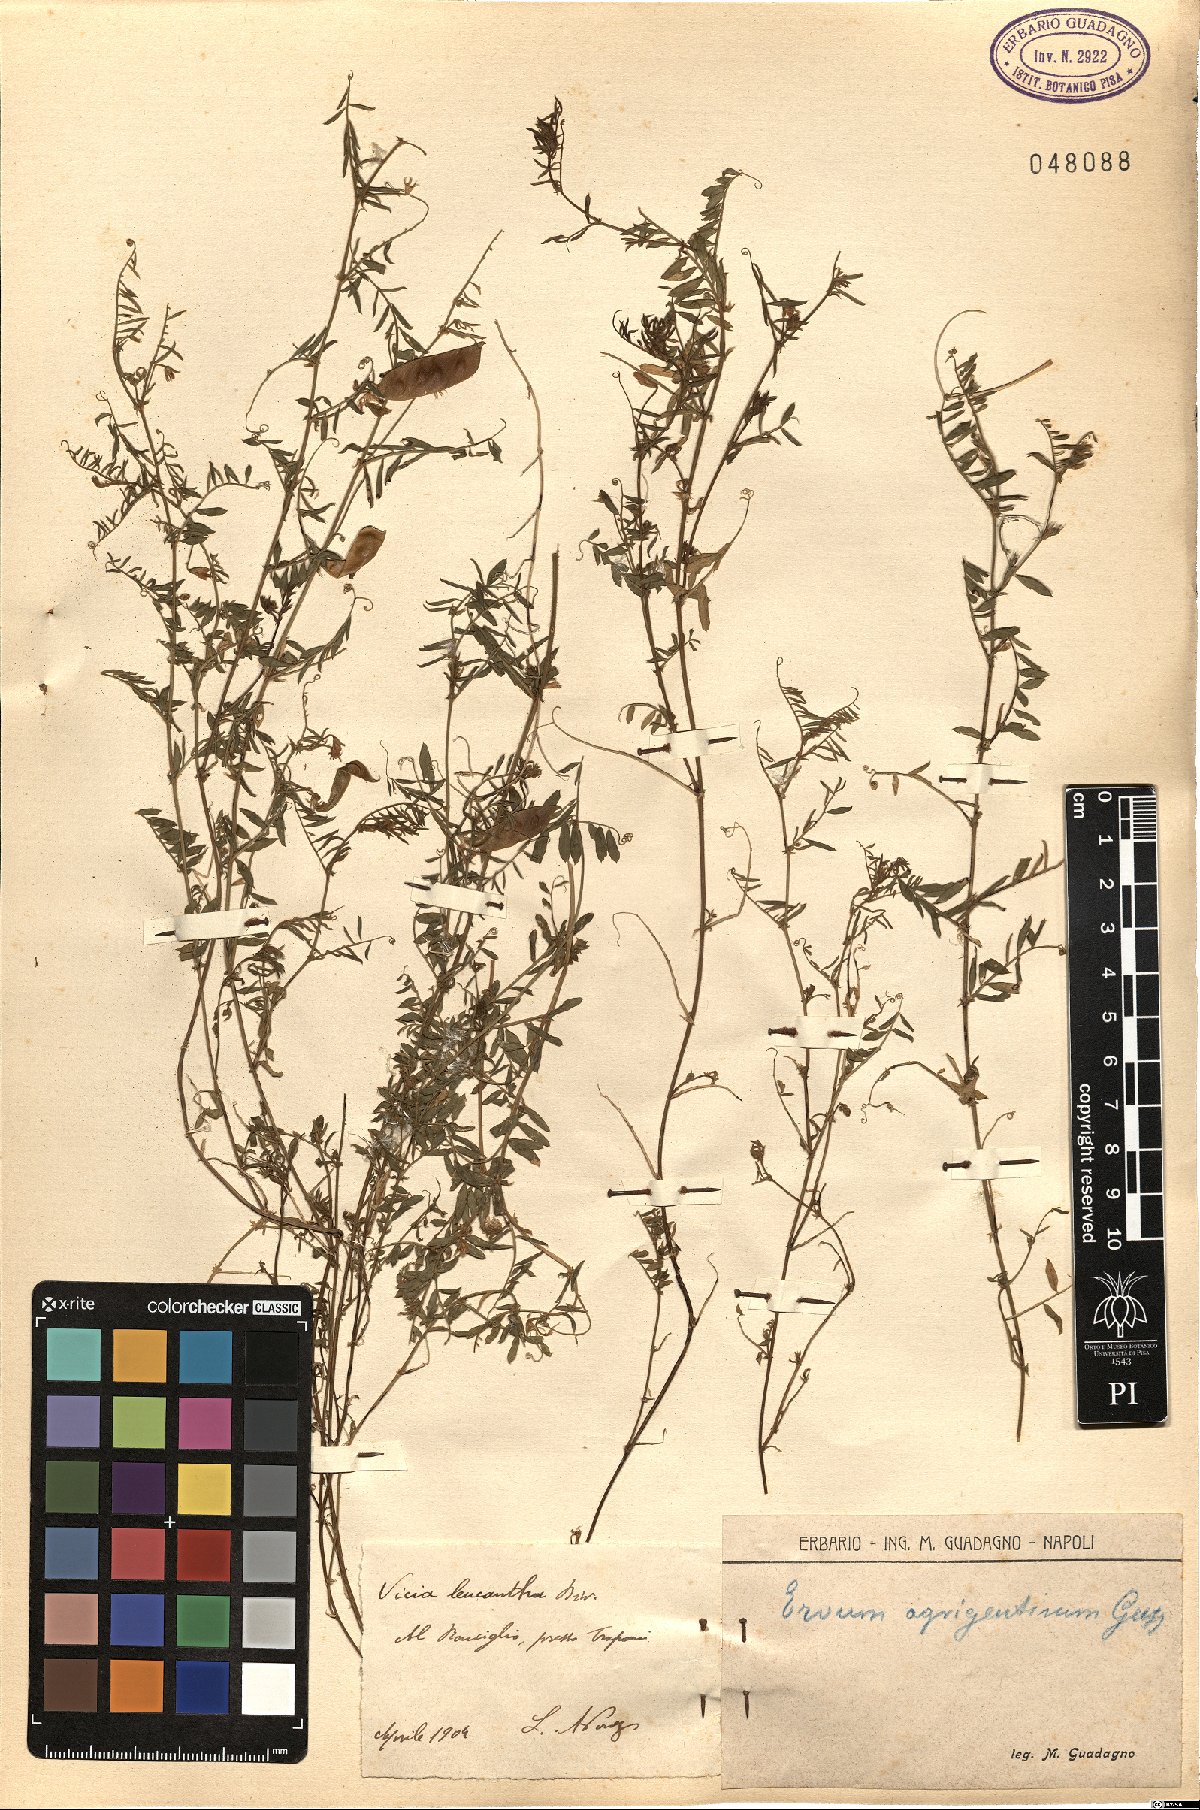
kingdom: Plantae
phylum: Tracheophyta
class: Magnoliopsida
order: Fabales
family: Fabaceae
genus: Vicia
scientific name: Vicia leucantha
